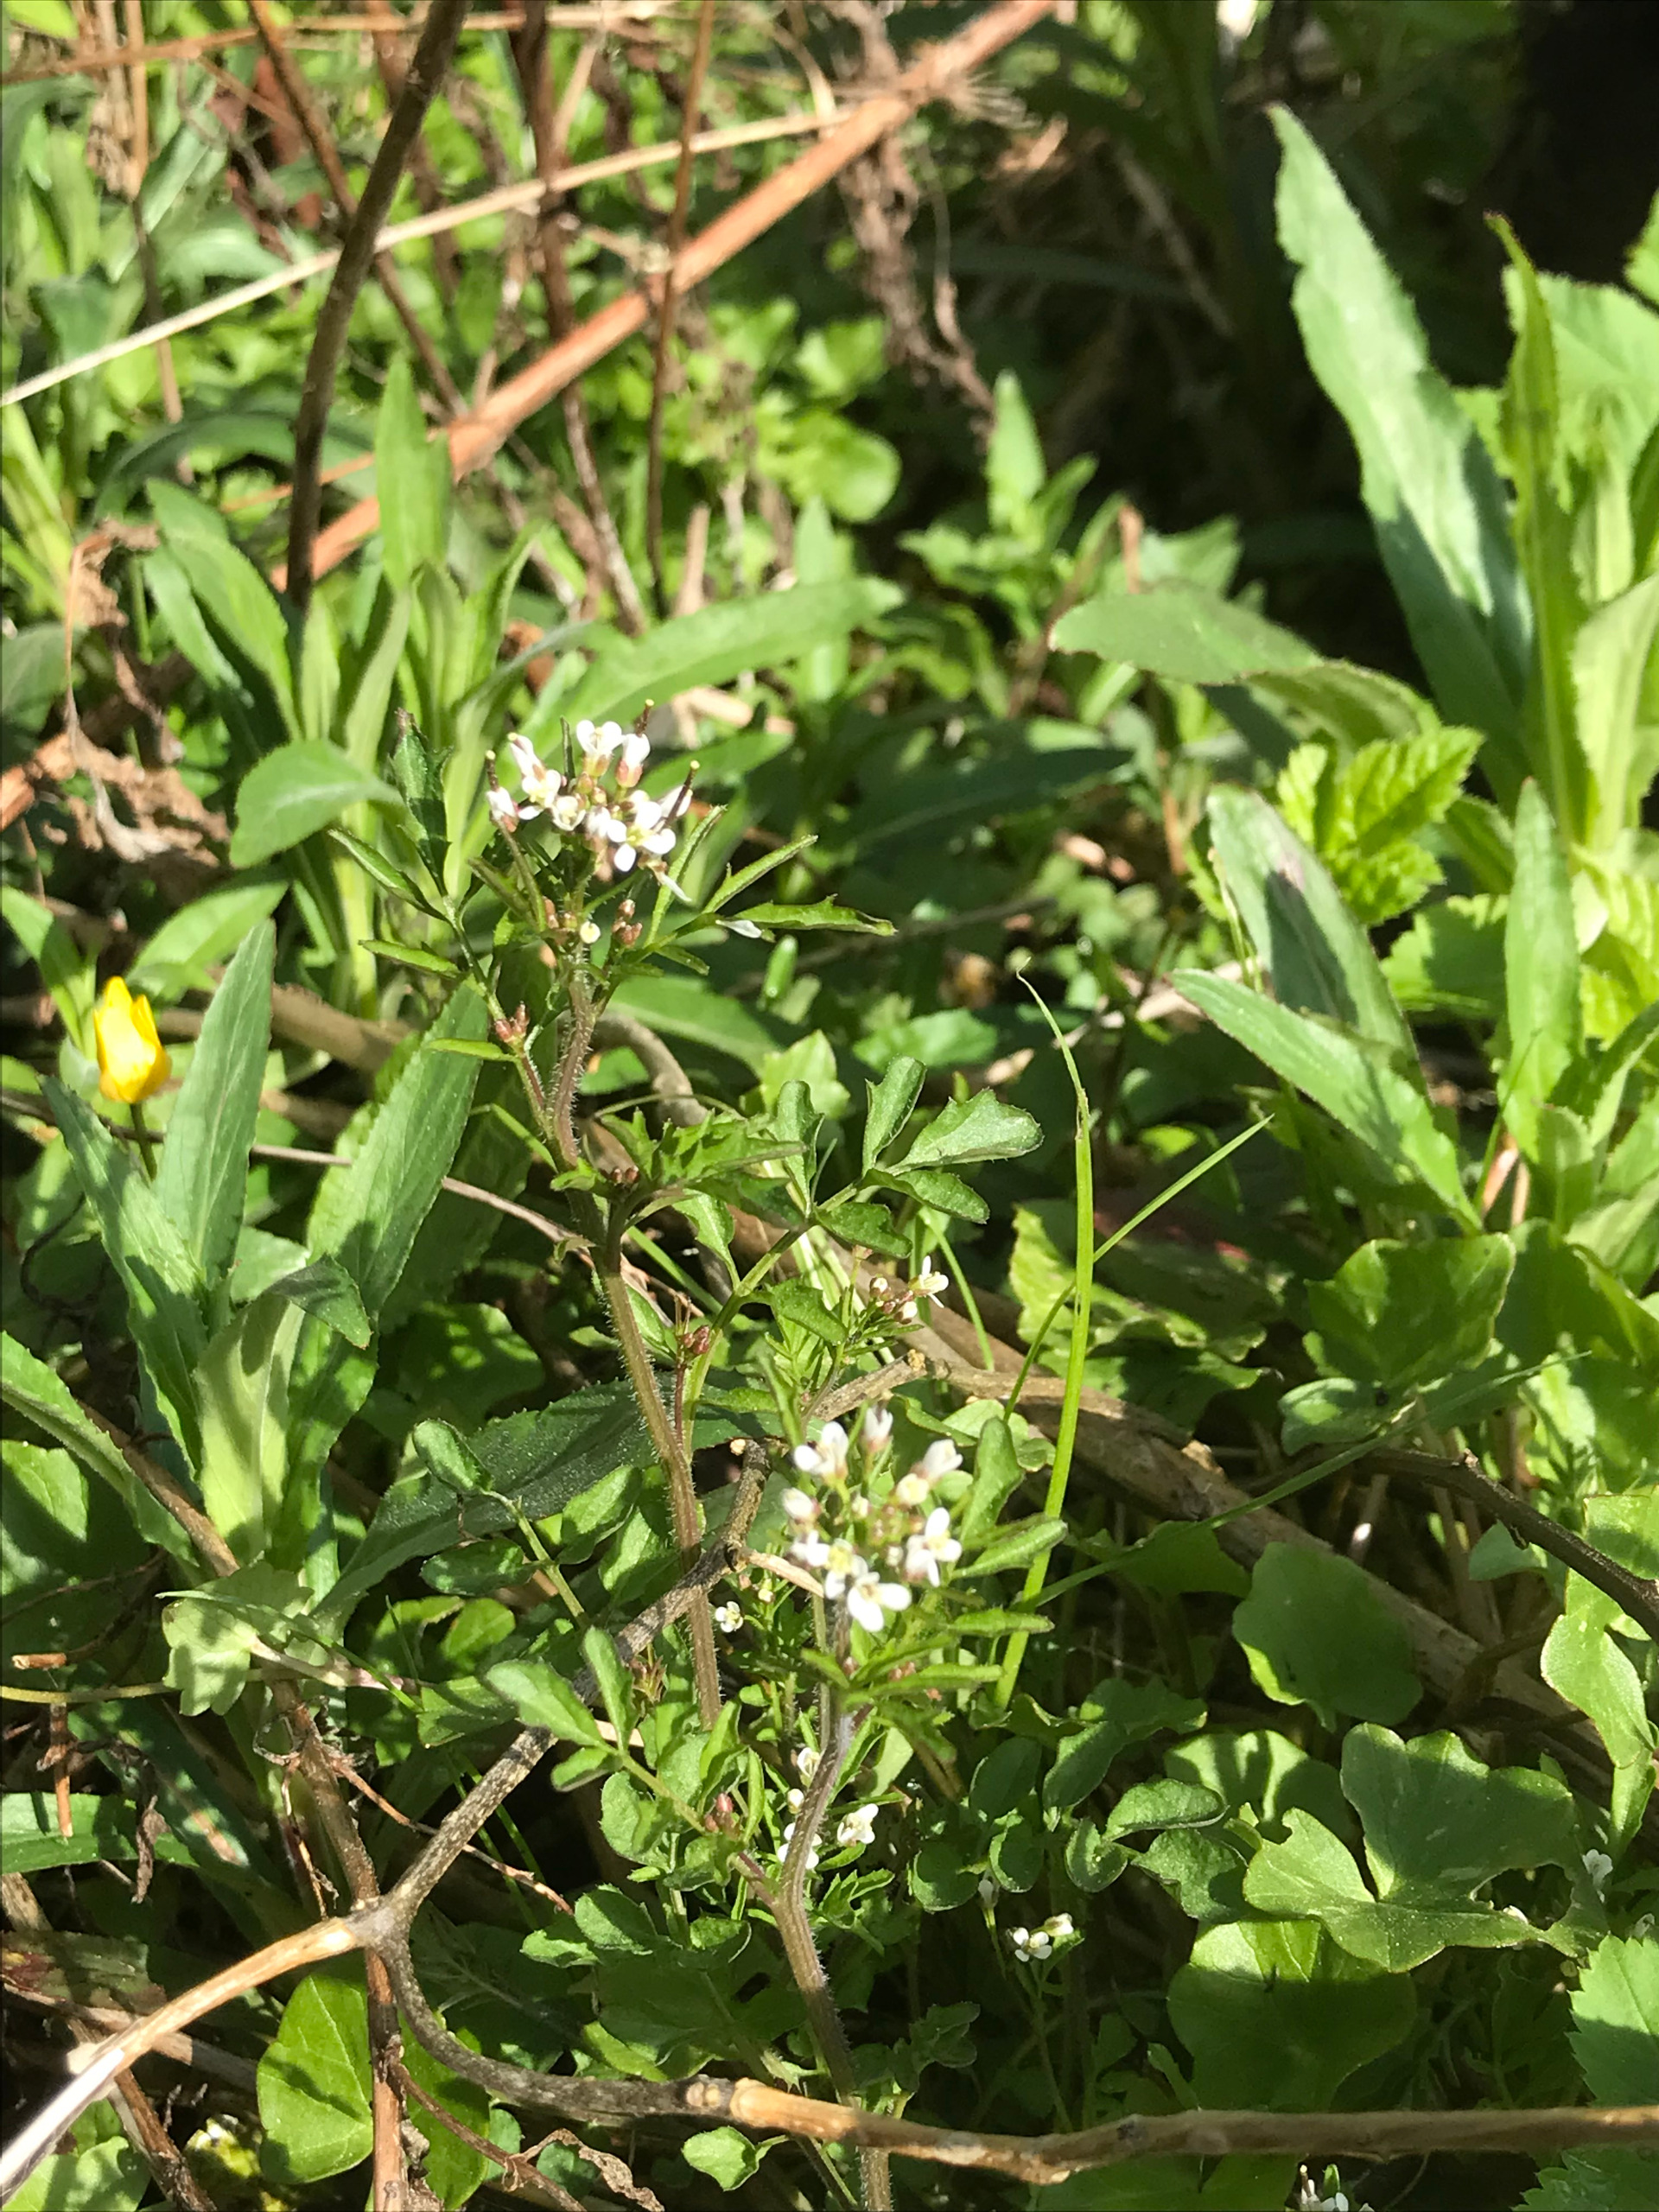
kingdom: Plantae
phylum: Tracheophyta
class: Magnoliopsida
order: Brassicales
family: Brassicaceae
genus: Cardamine
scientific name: Cardamine flexuosa
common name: Skov-springklap
